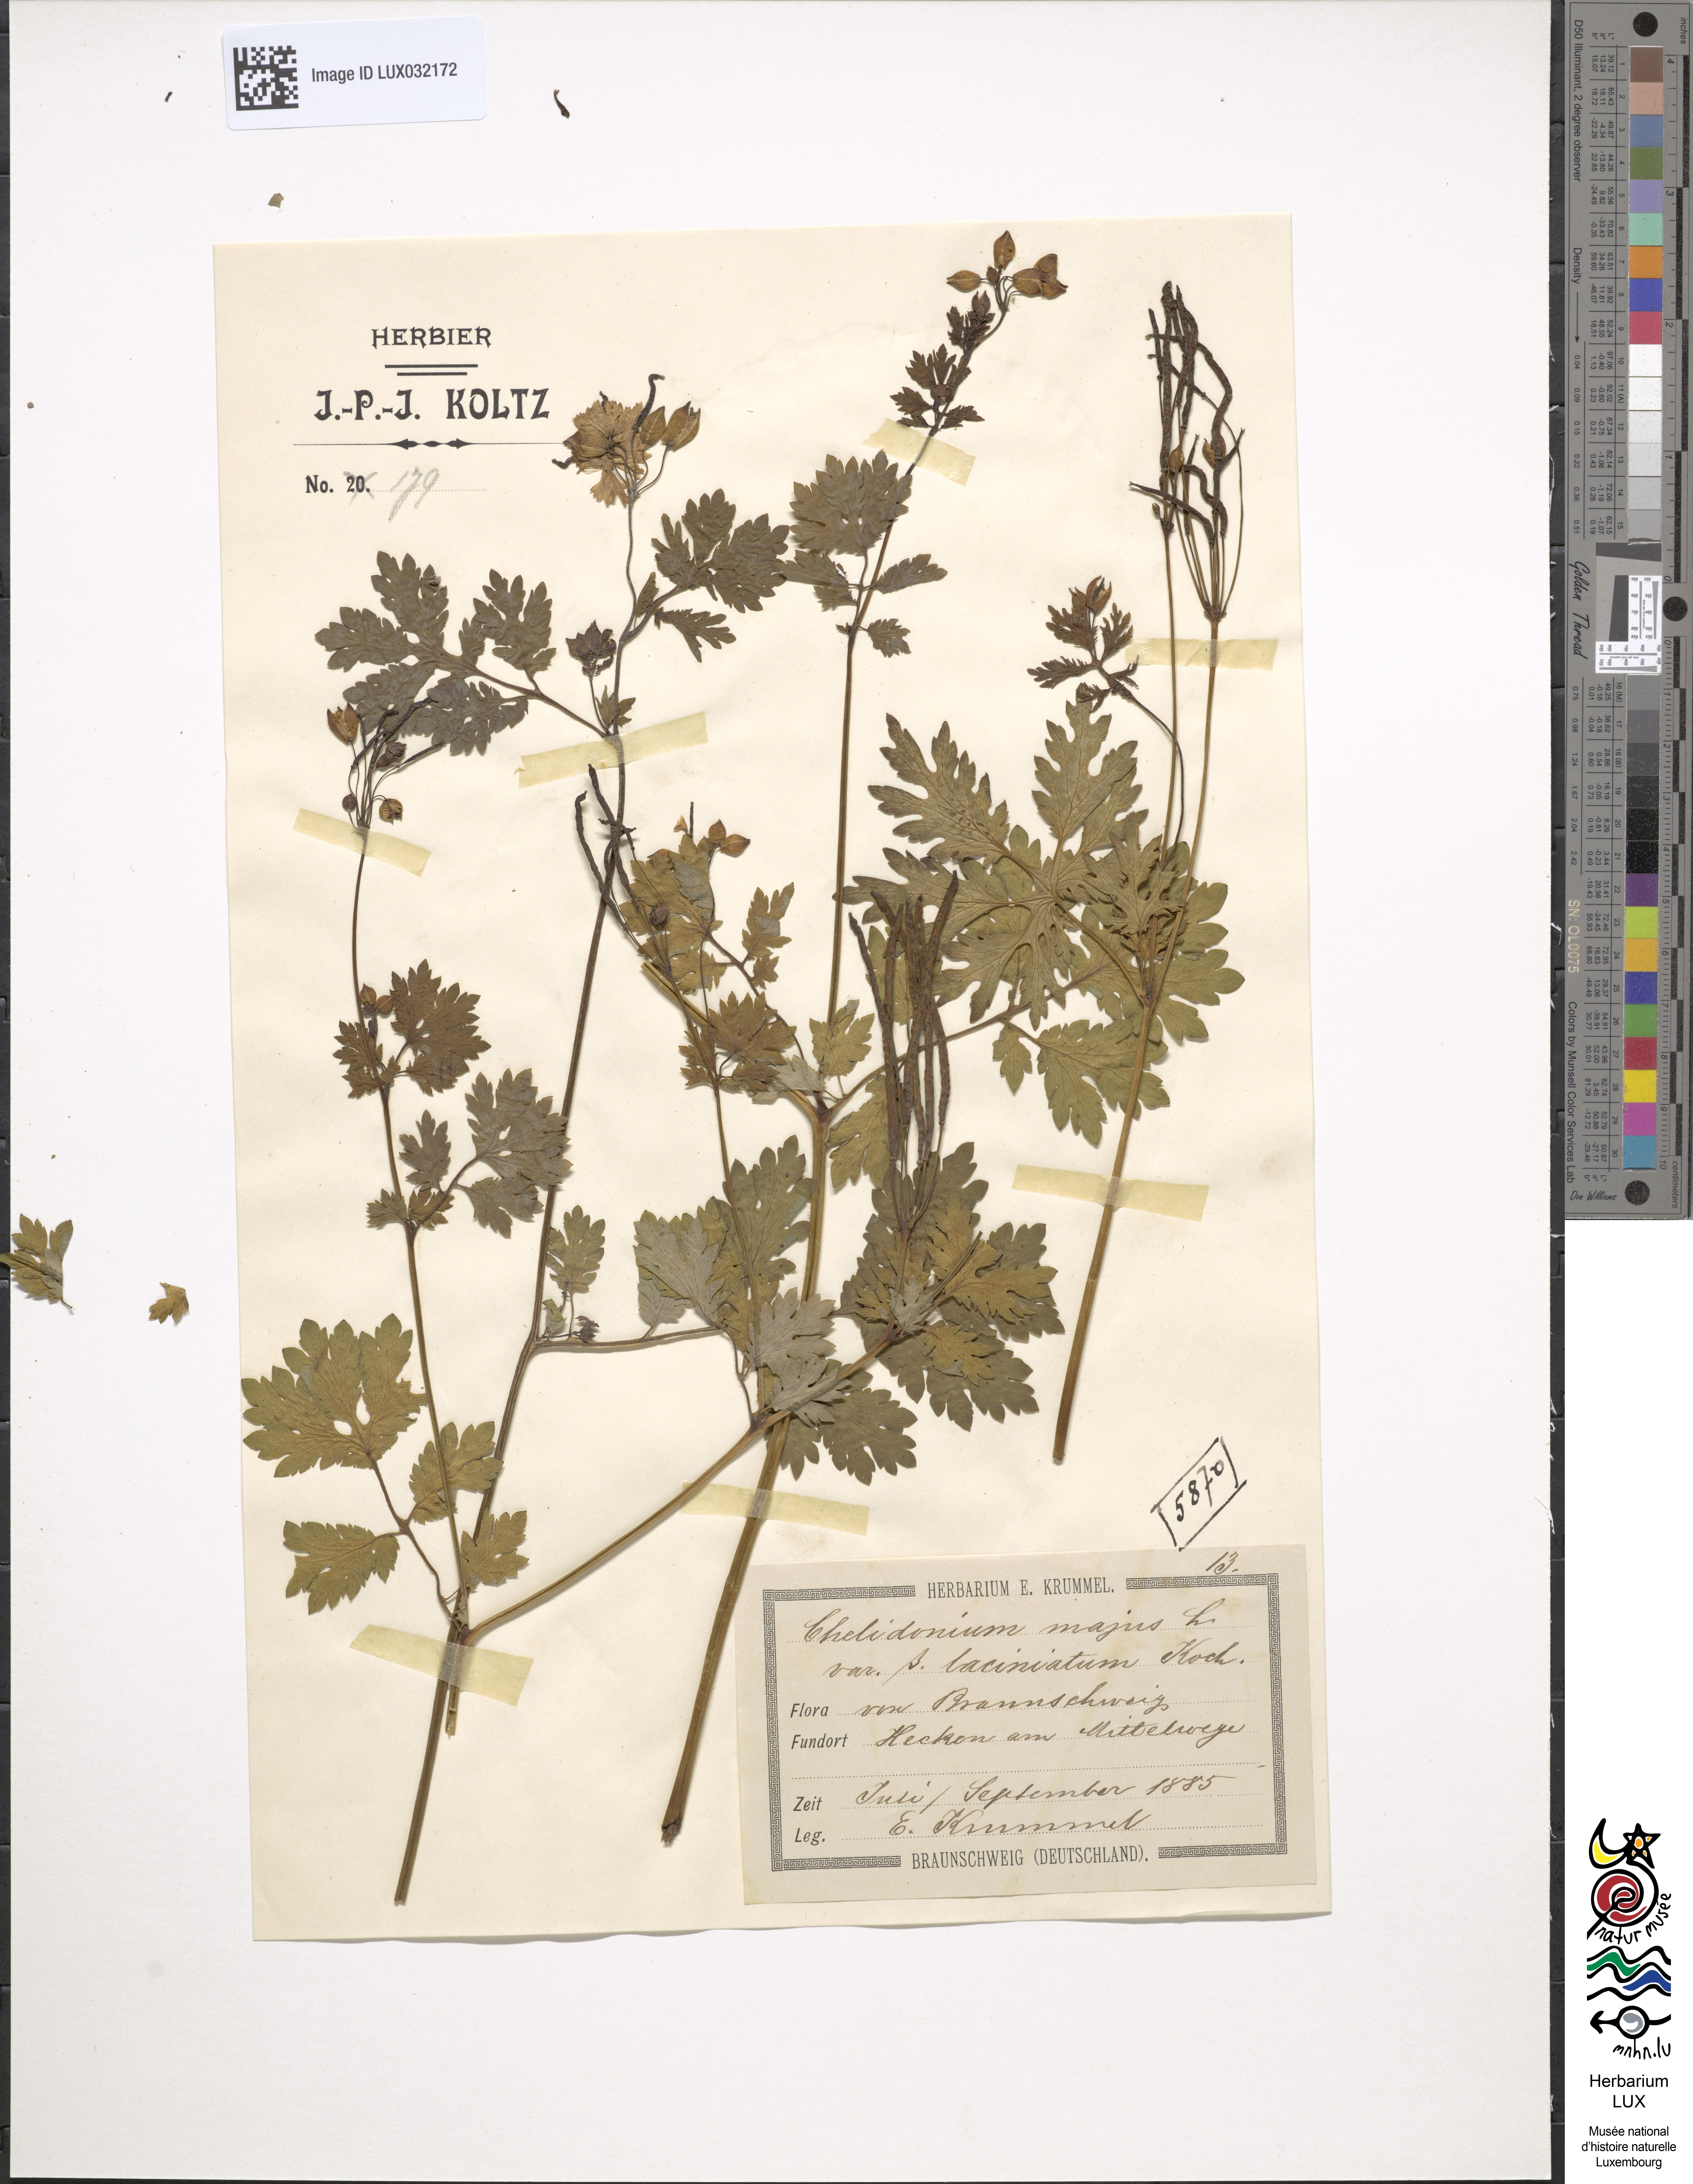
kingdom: Plantae
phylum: Tracheophyta
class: Magnoliopsida
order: Ranunculales
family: Papaveraceae
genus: Chelidonium
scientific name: Chelidonium majus
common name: Greater celandine
